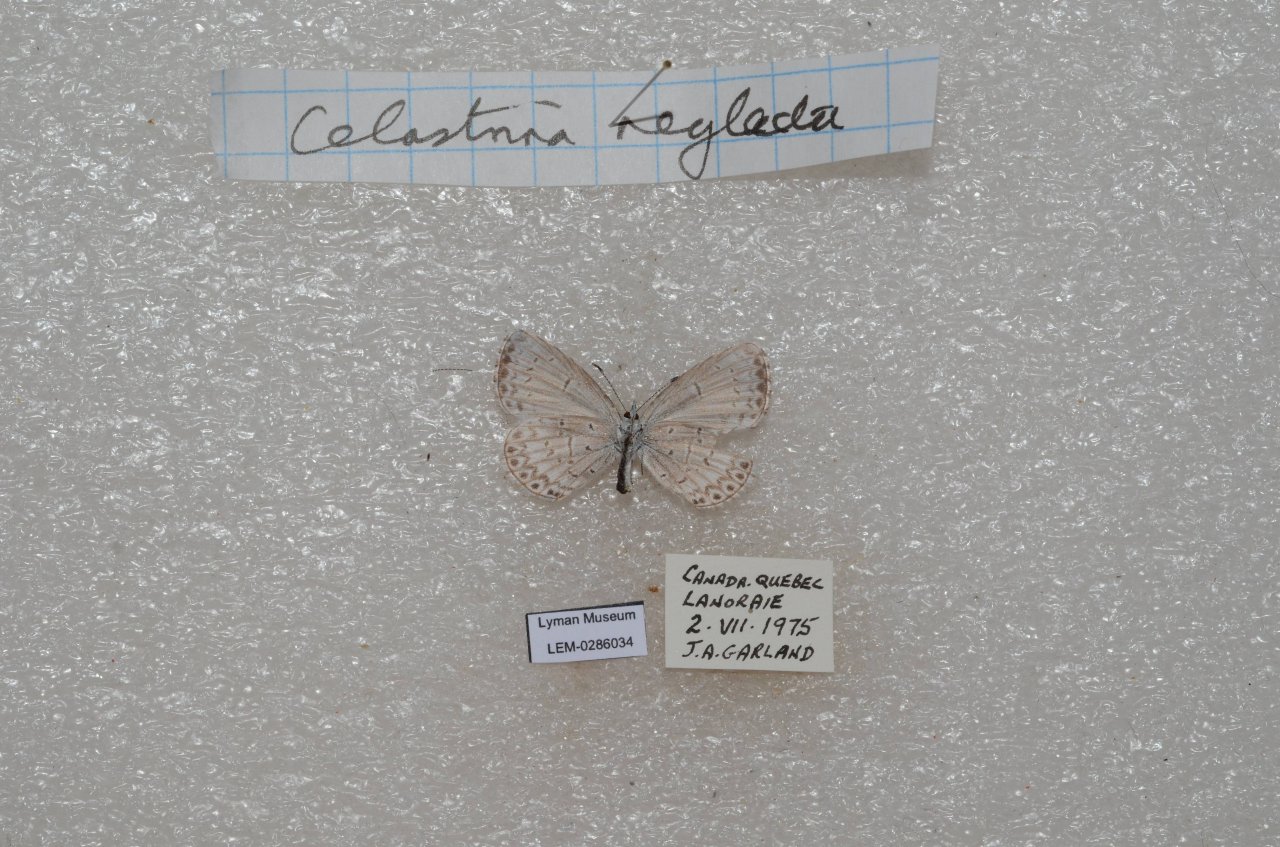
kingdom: Animalia
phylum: Arthropoda
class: Insecta
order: Lepidoptera
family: Lycaenidae
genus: Celastrina
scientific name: Celastrina lucia
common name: Northern Spring Azure
